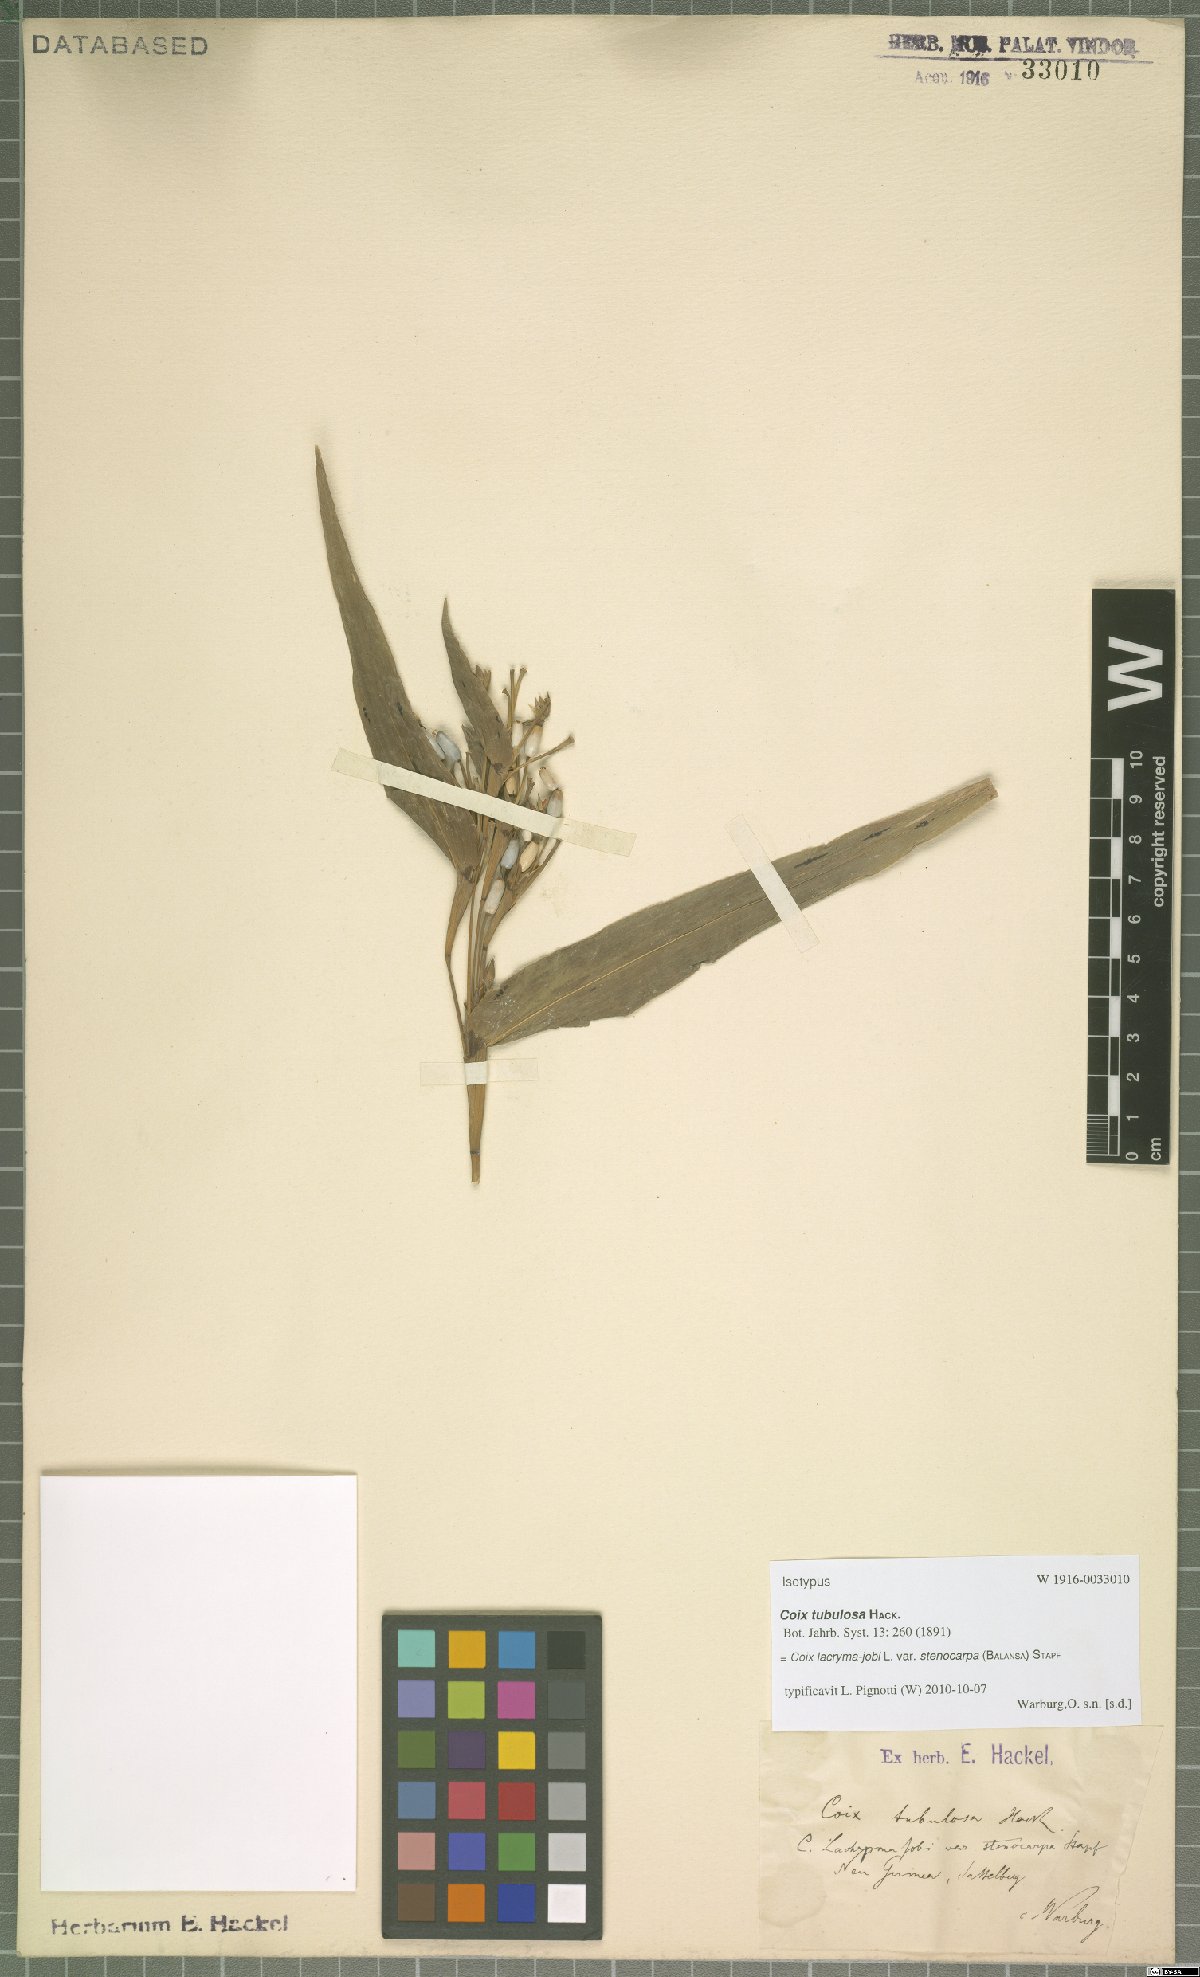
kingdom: Plantae
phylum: Tracheophyta
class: Liliopsida
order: Poales
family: Poaceae
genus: Coix
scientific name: Coix lacryma-jobi
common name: Job's tears
